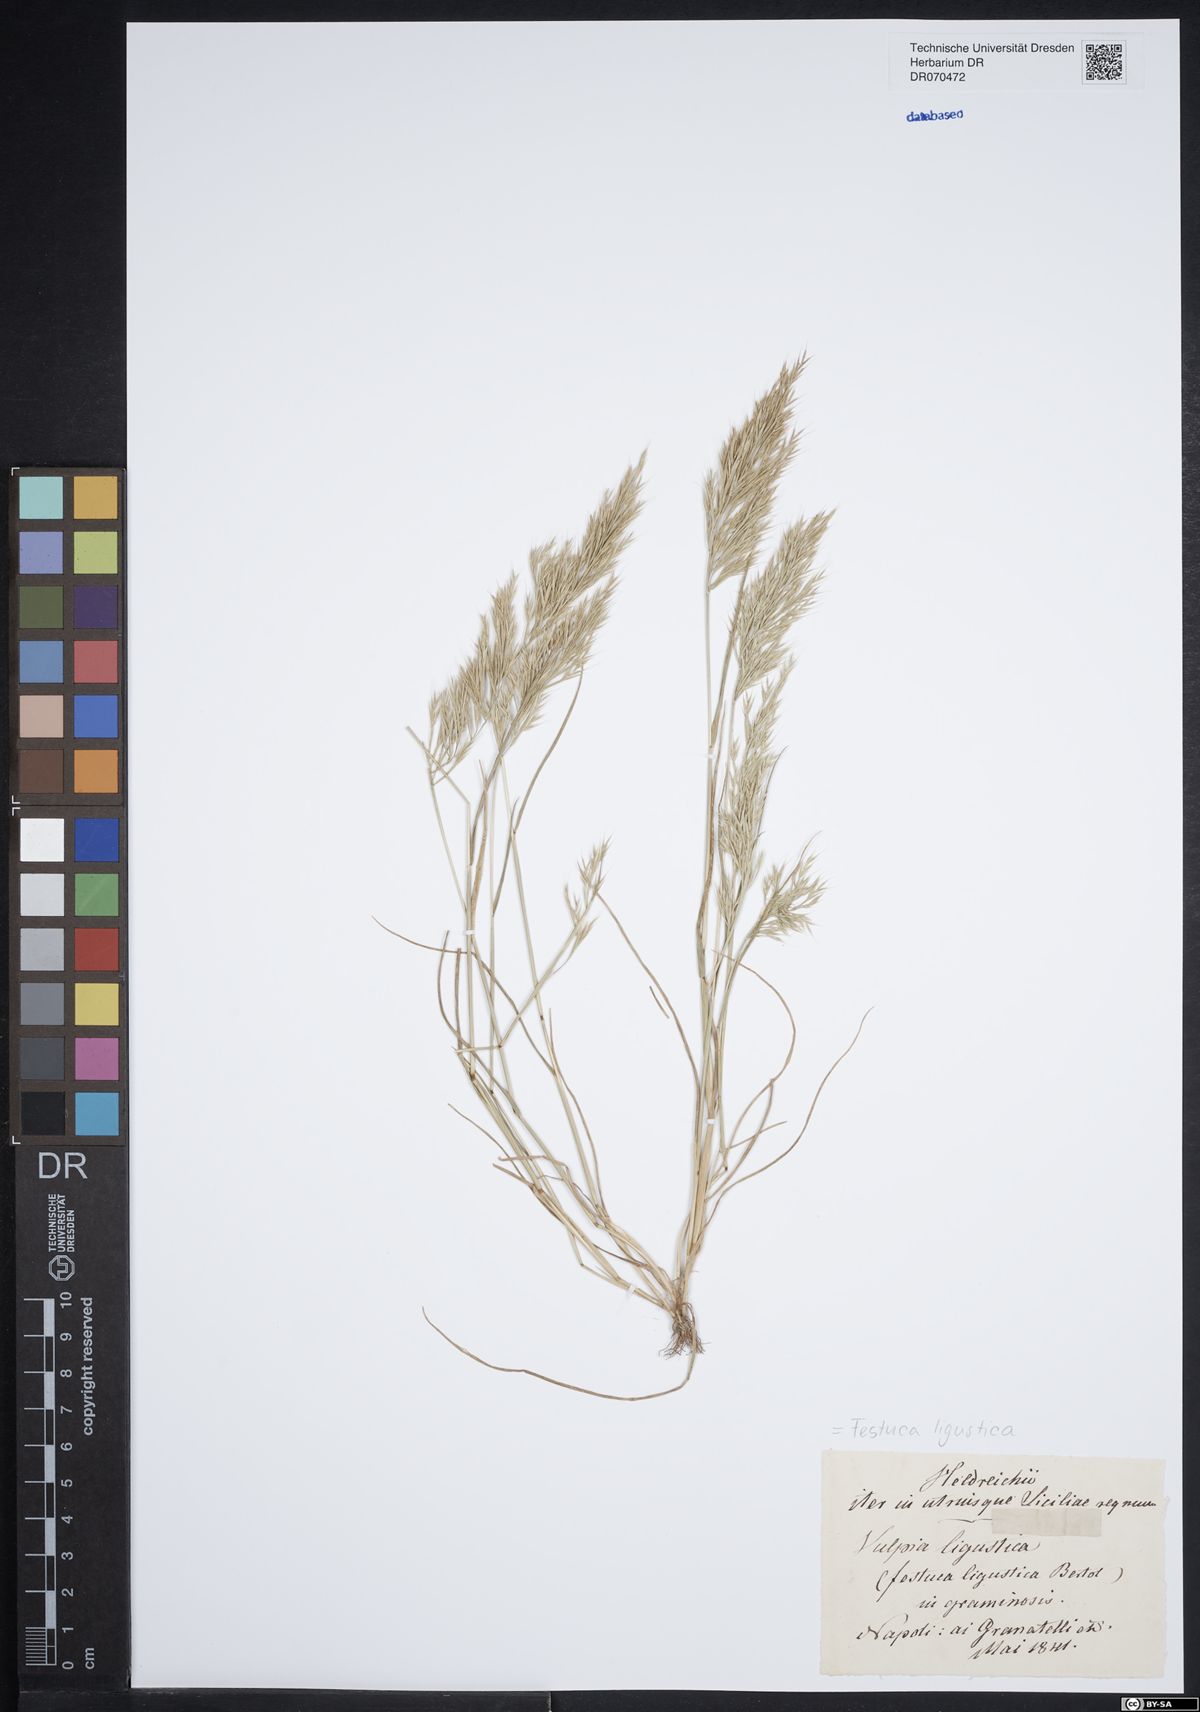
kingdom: Plantae
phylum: Tracheophyta
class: Liliopsida
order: Poales
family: Poaceae
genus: Festuca
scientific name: Festuca ligustica
